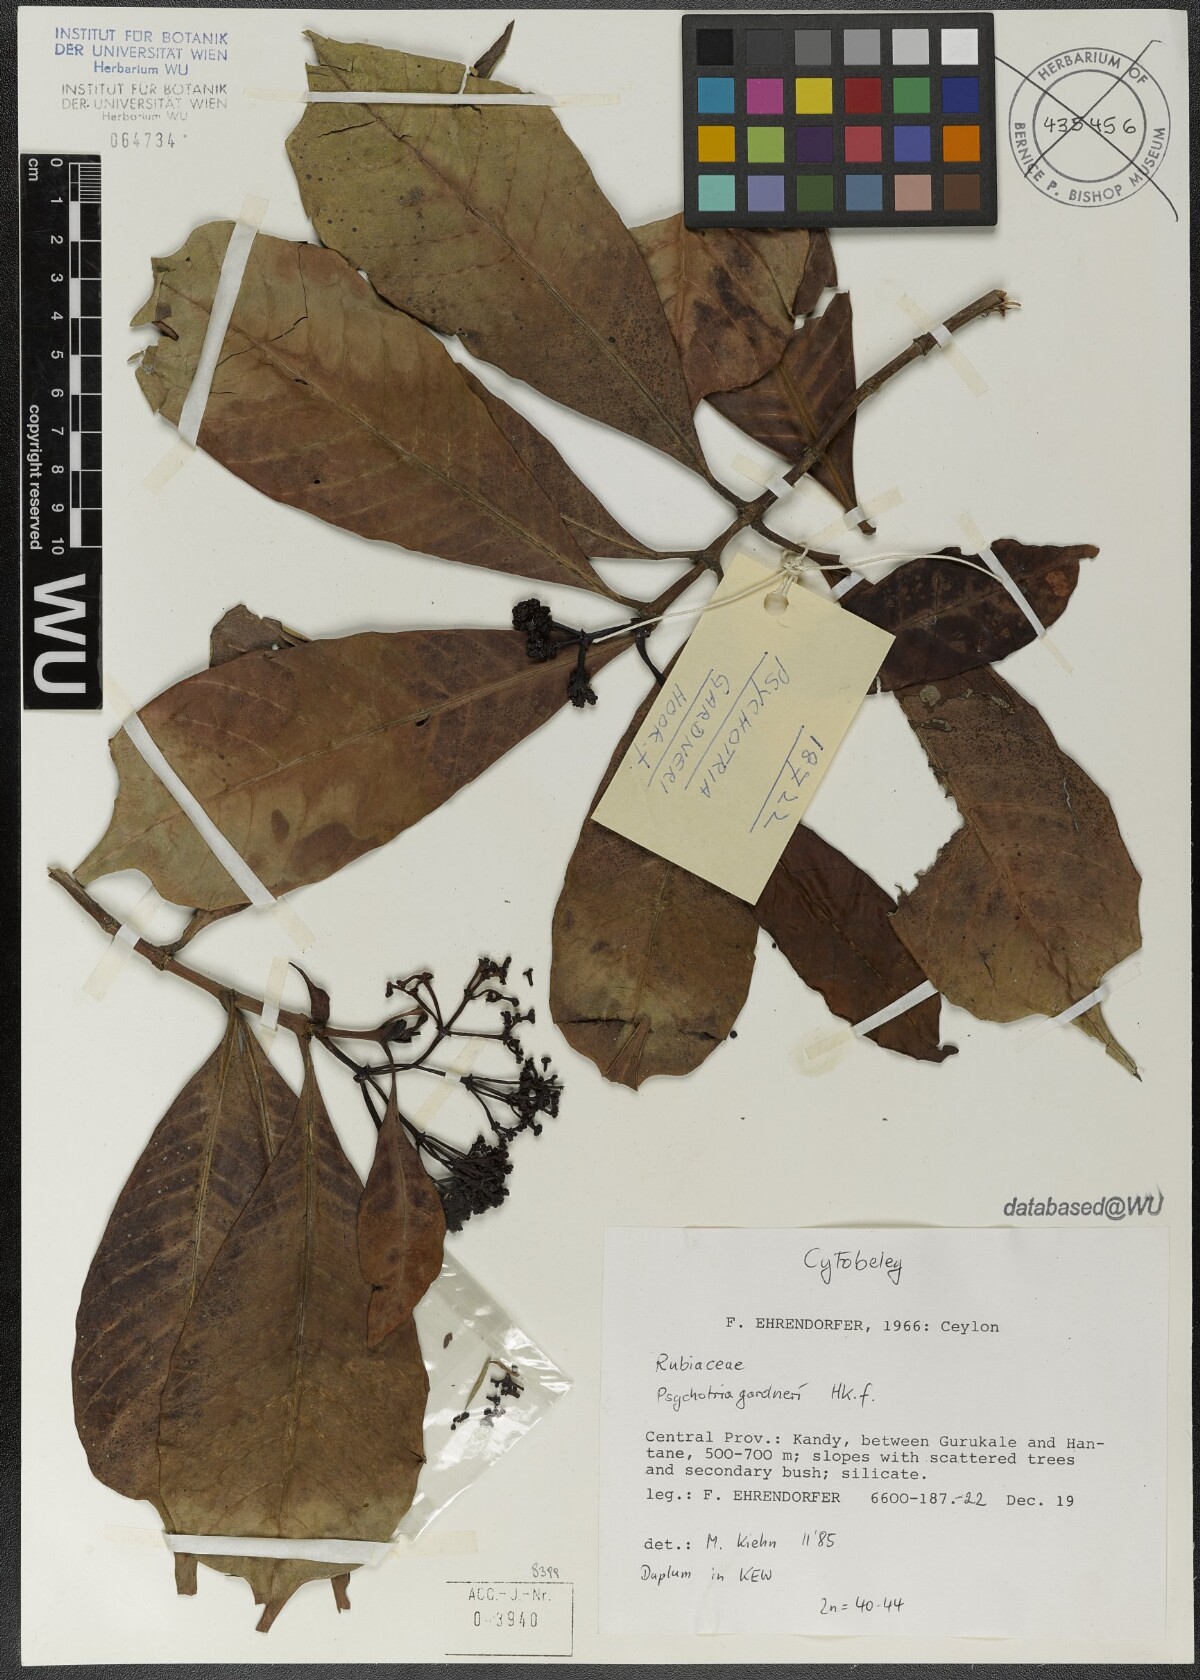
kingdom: Plantae
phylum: Tracheophyta
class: Magnoliopsida
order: Gentianales
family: Rubiaceae
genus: Psychotria
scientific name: Psychotria gardneri
